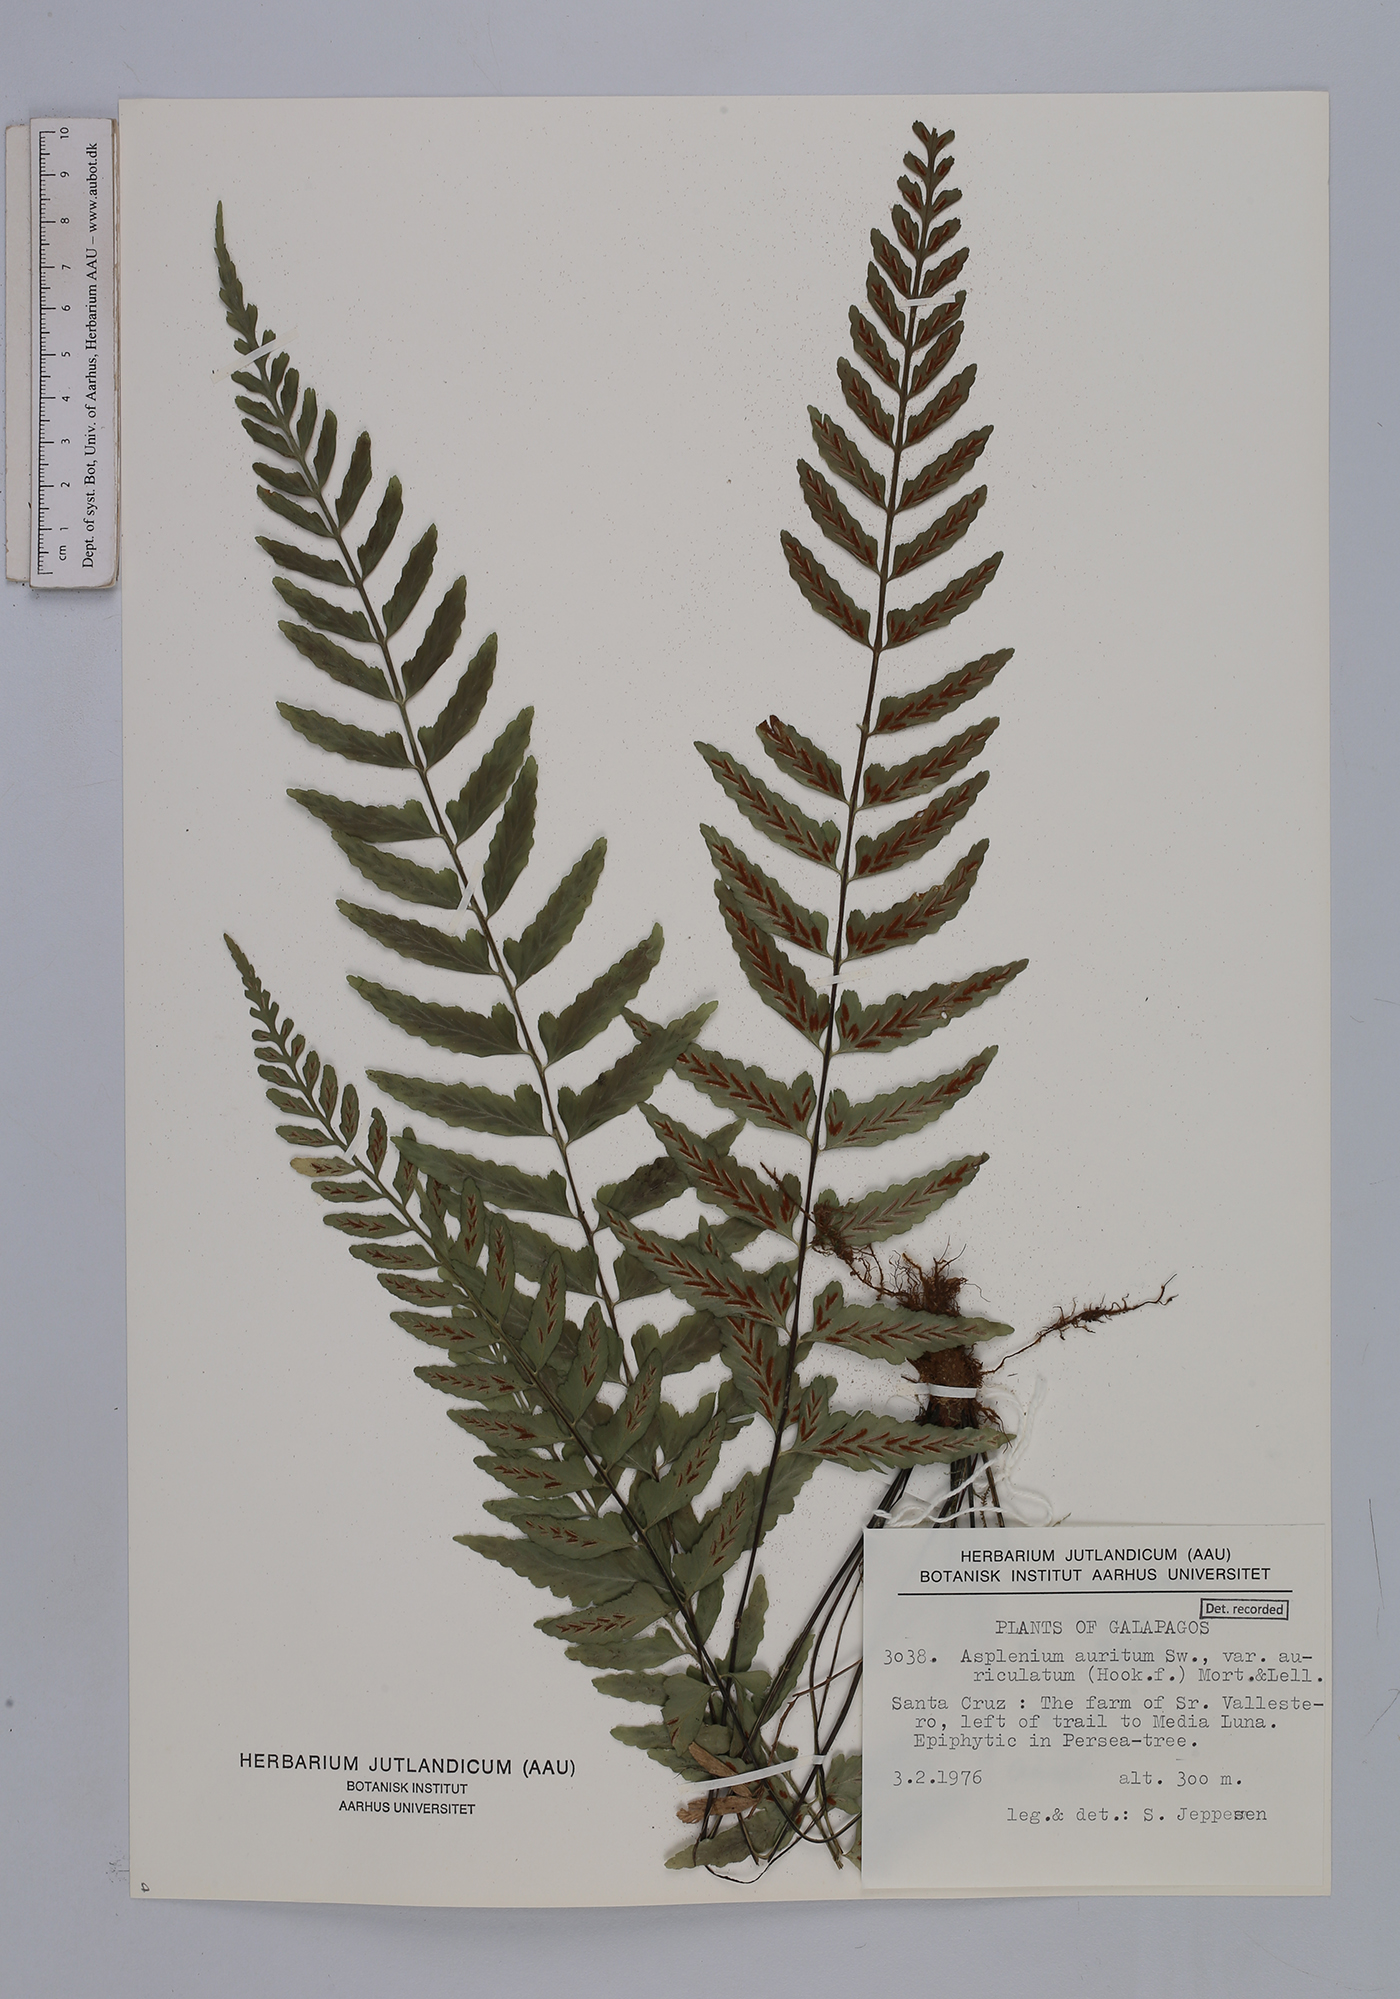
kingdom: Plantae
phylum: Tracheophyta
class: Polypodiopsida
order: Polypodiales
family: Aspleniaceae
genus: Asplenium
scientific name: Asplenium auritum
